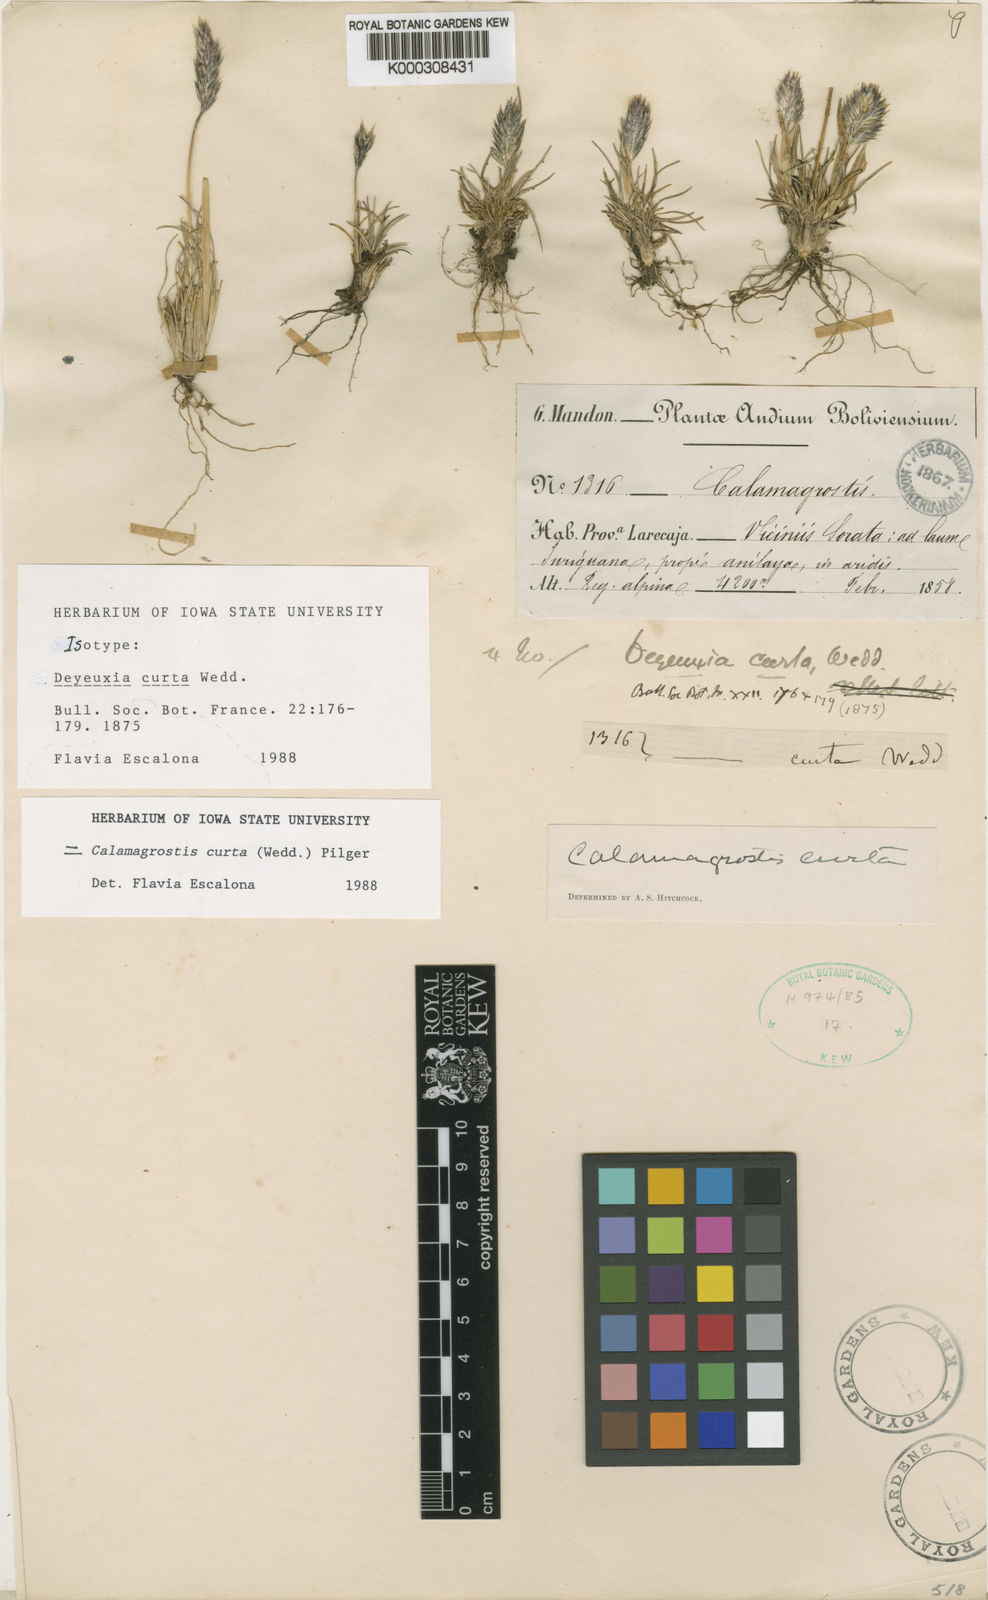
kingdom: Plantae
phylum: Tracheophyta
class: Liliopsida
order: Poales
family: Poaceae
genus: Cinnagrostis
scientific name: Cinnagrostis curta
